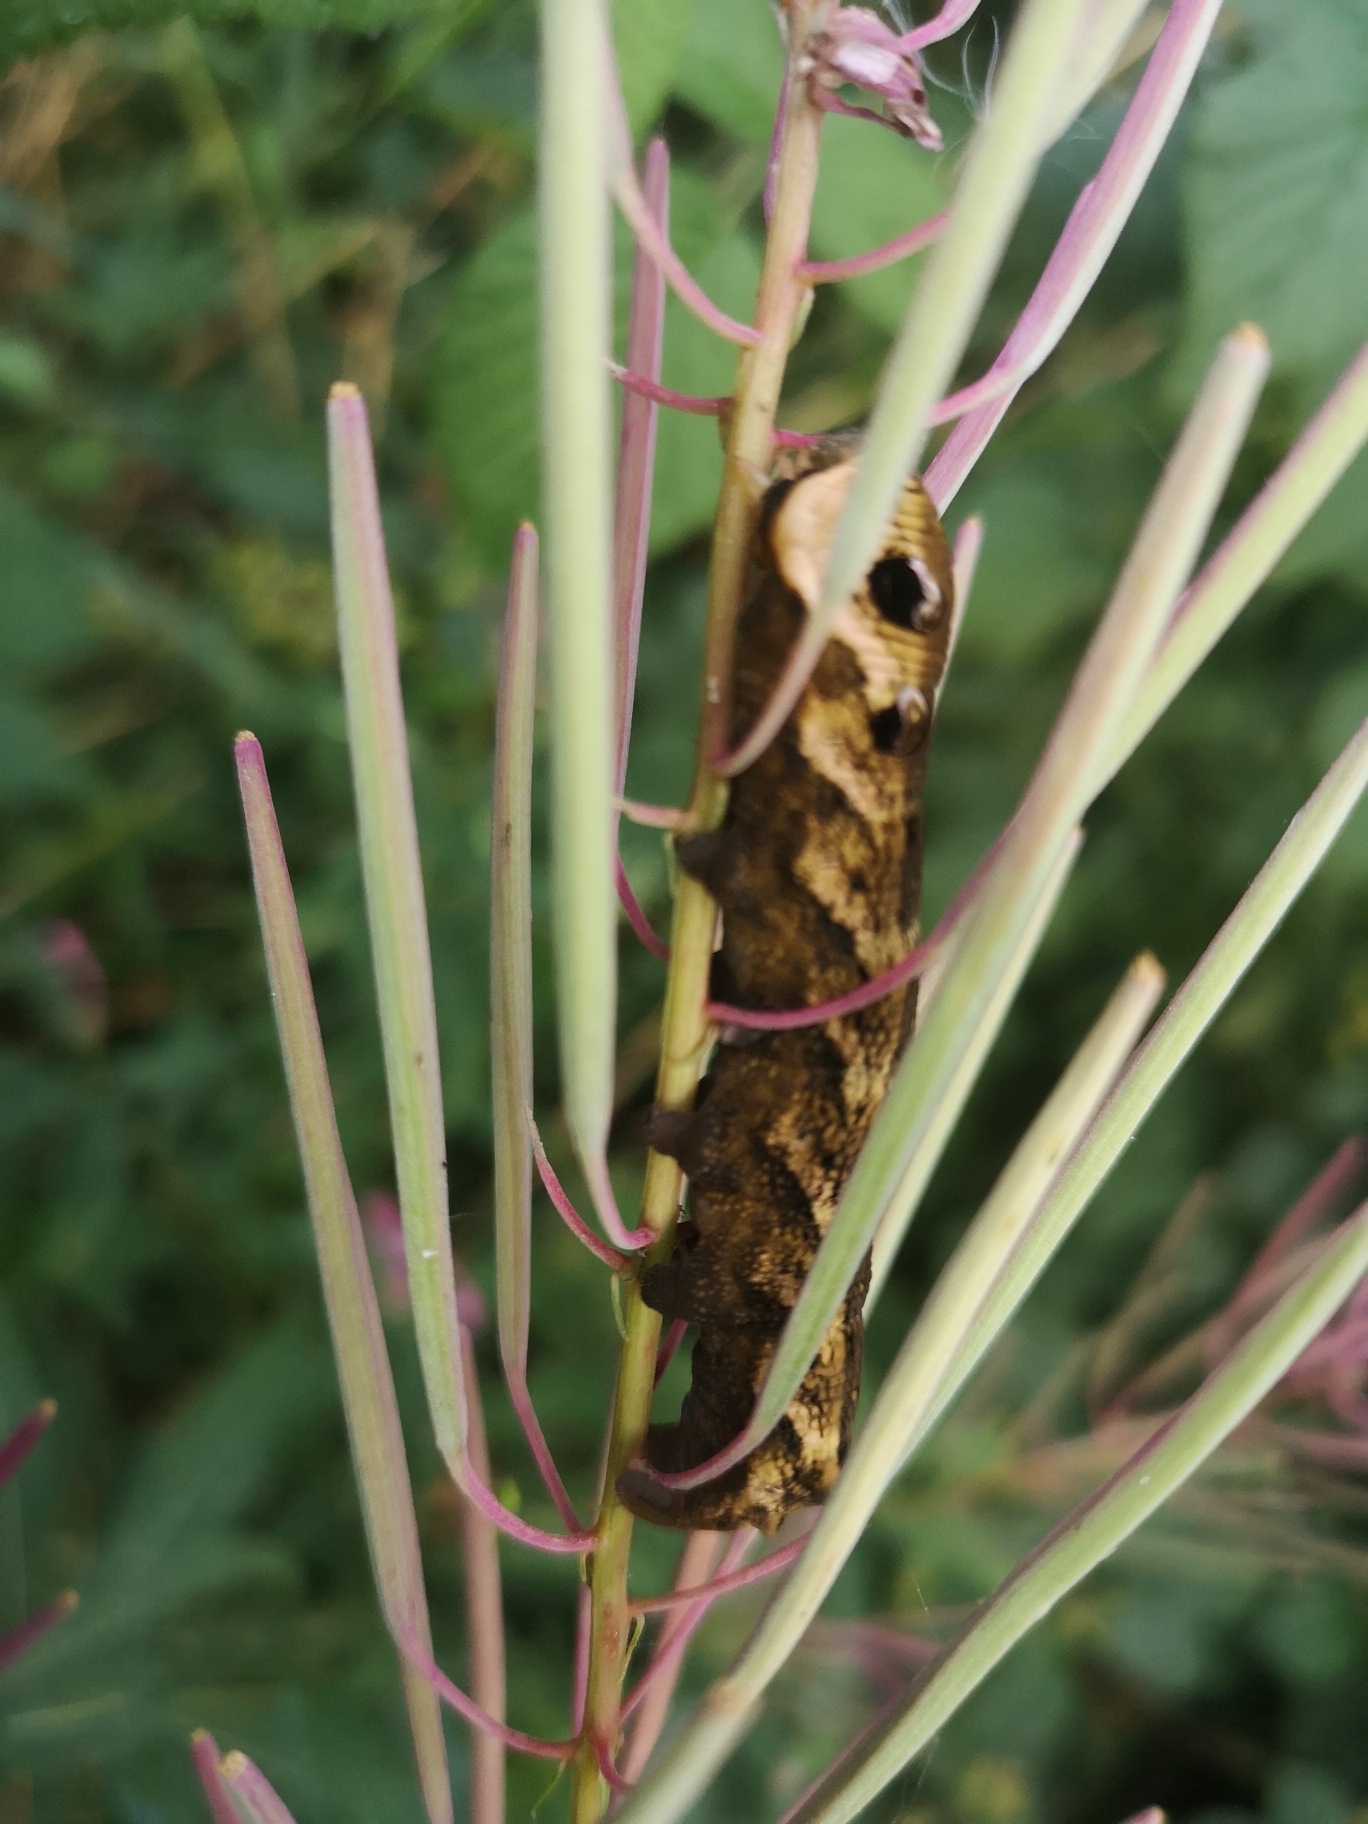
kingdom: Animalia
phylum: Arthropoda
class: Insecta
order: Lepidoptera
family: Sphingidae
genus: Deilephila
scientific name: Deilephila elpenor
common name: Dueurtsværmer
